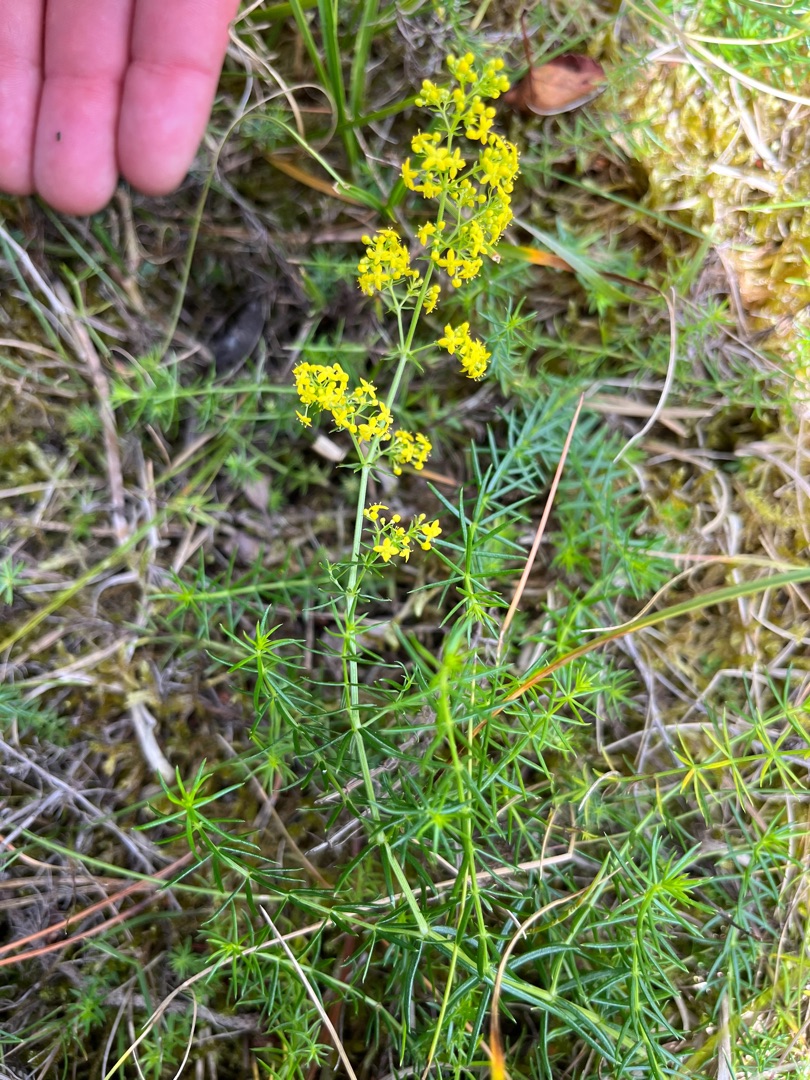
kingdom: Plantae
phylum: Tracheophyta
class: Magnoliopsida
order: Gentianales
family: Rubiaceae
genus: Galium
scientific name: Galium verum
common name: Gul snerre
